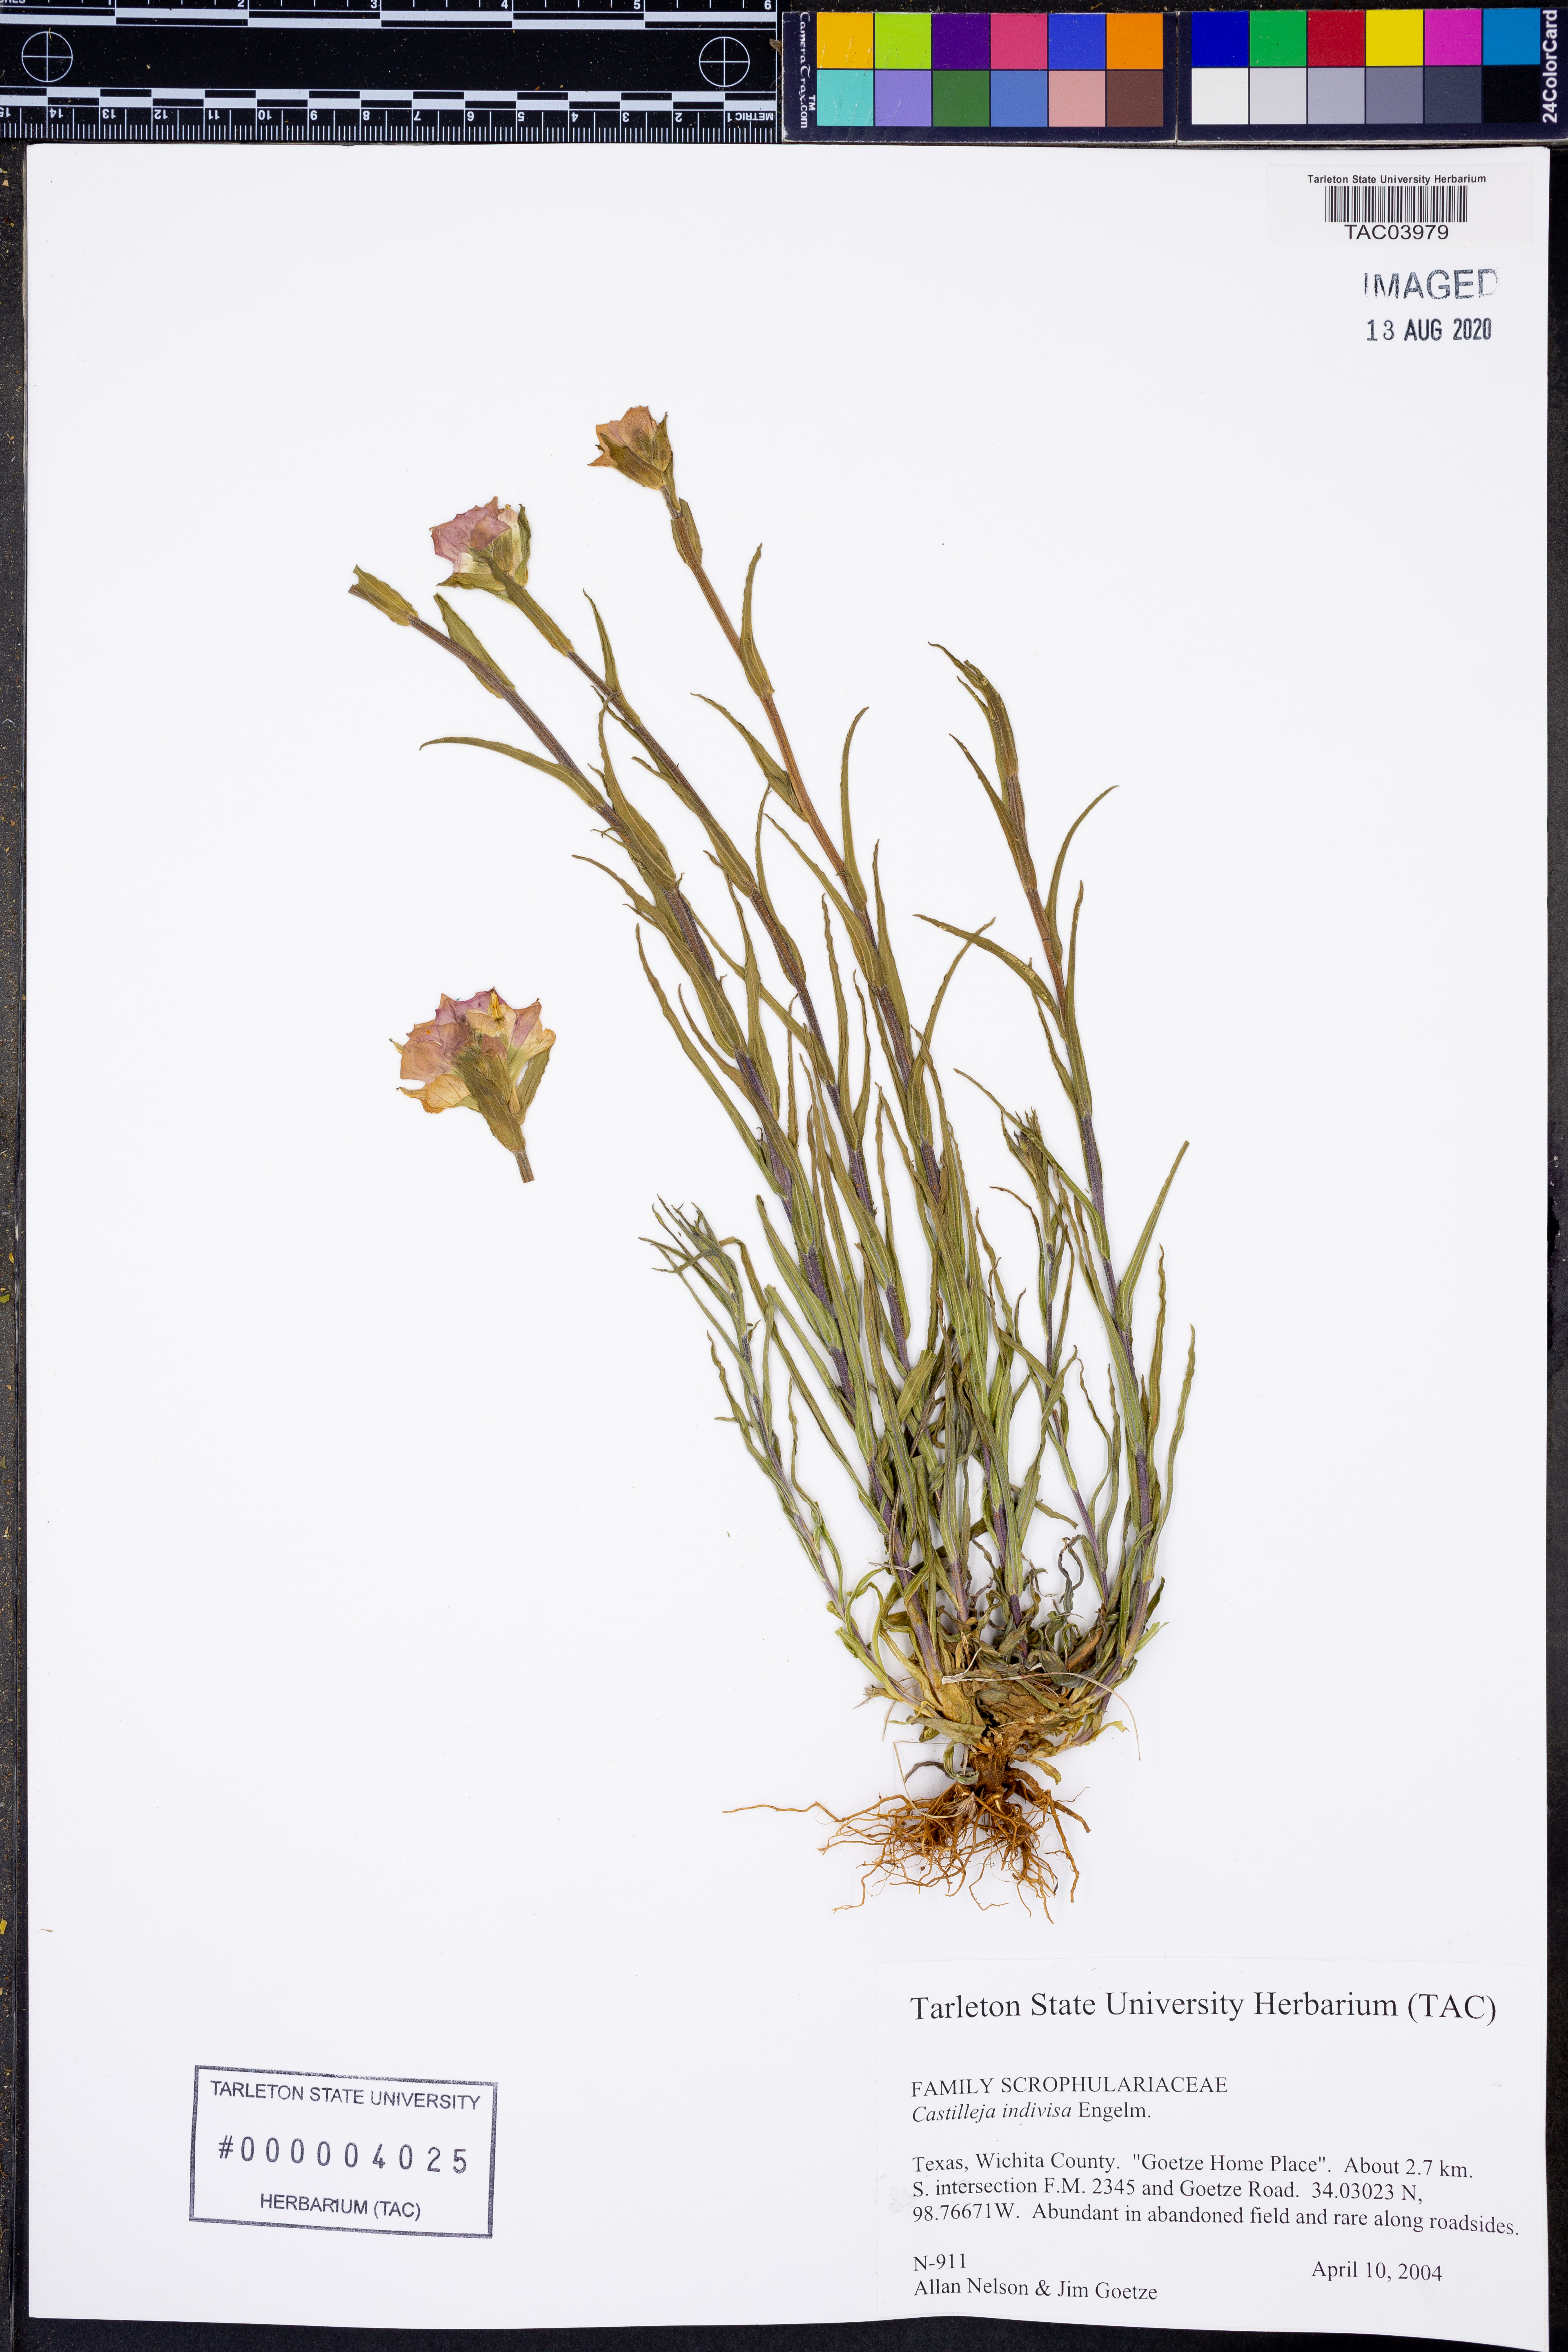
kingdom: Plantae
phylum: Tracheophyta
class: Magnoliopsida
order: Lamiales
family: Orobanchaceae
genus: Castilleja
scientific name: Castilleja indivisa
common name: Texas paintbrush
